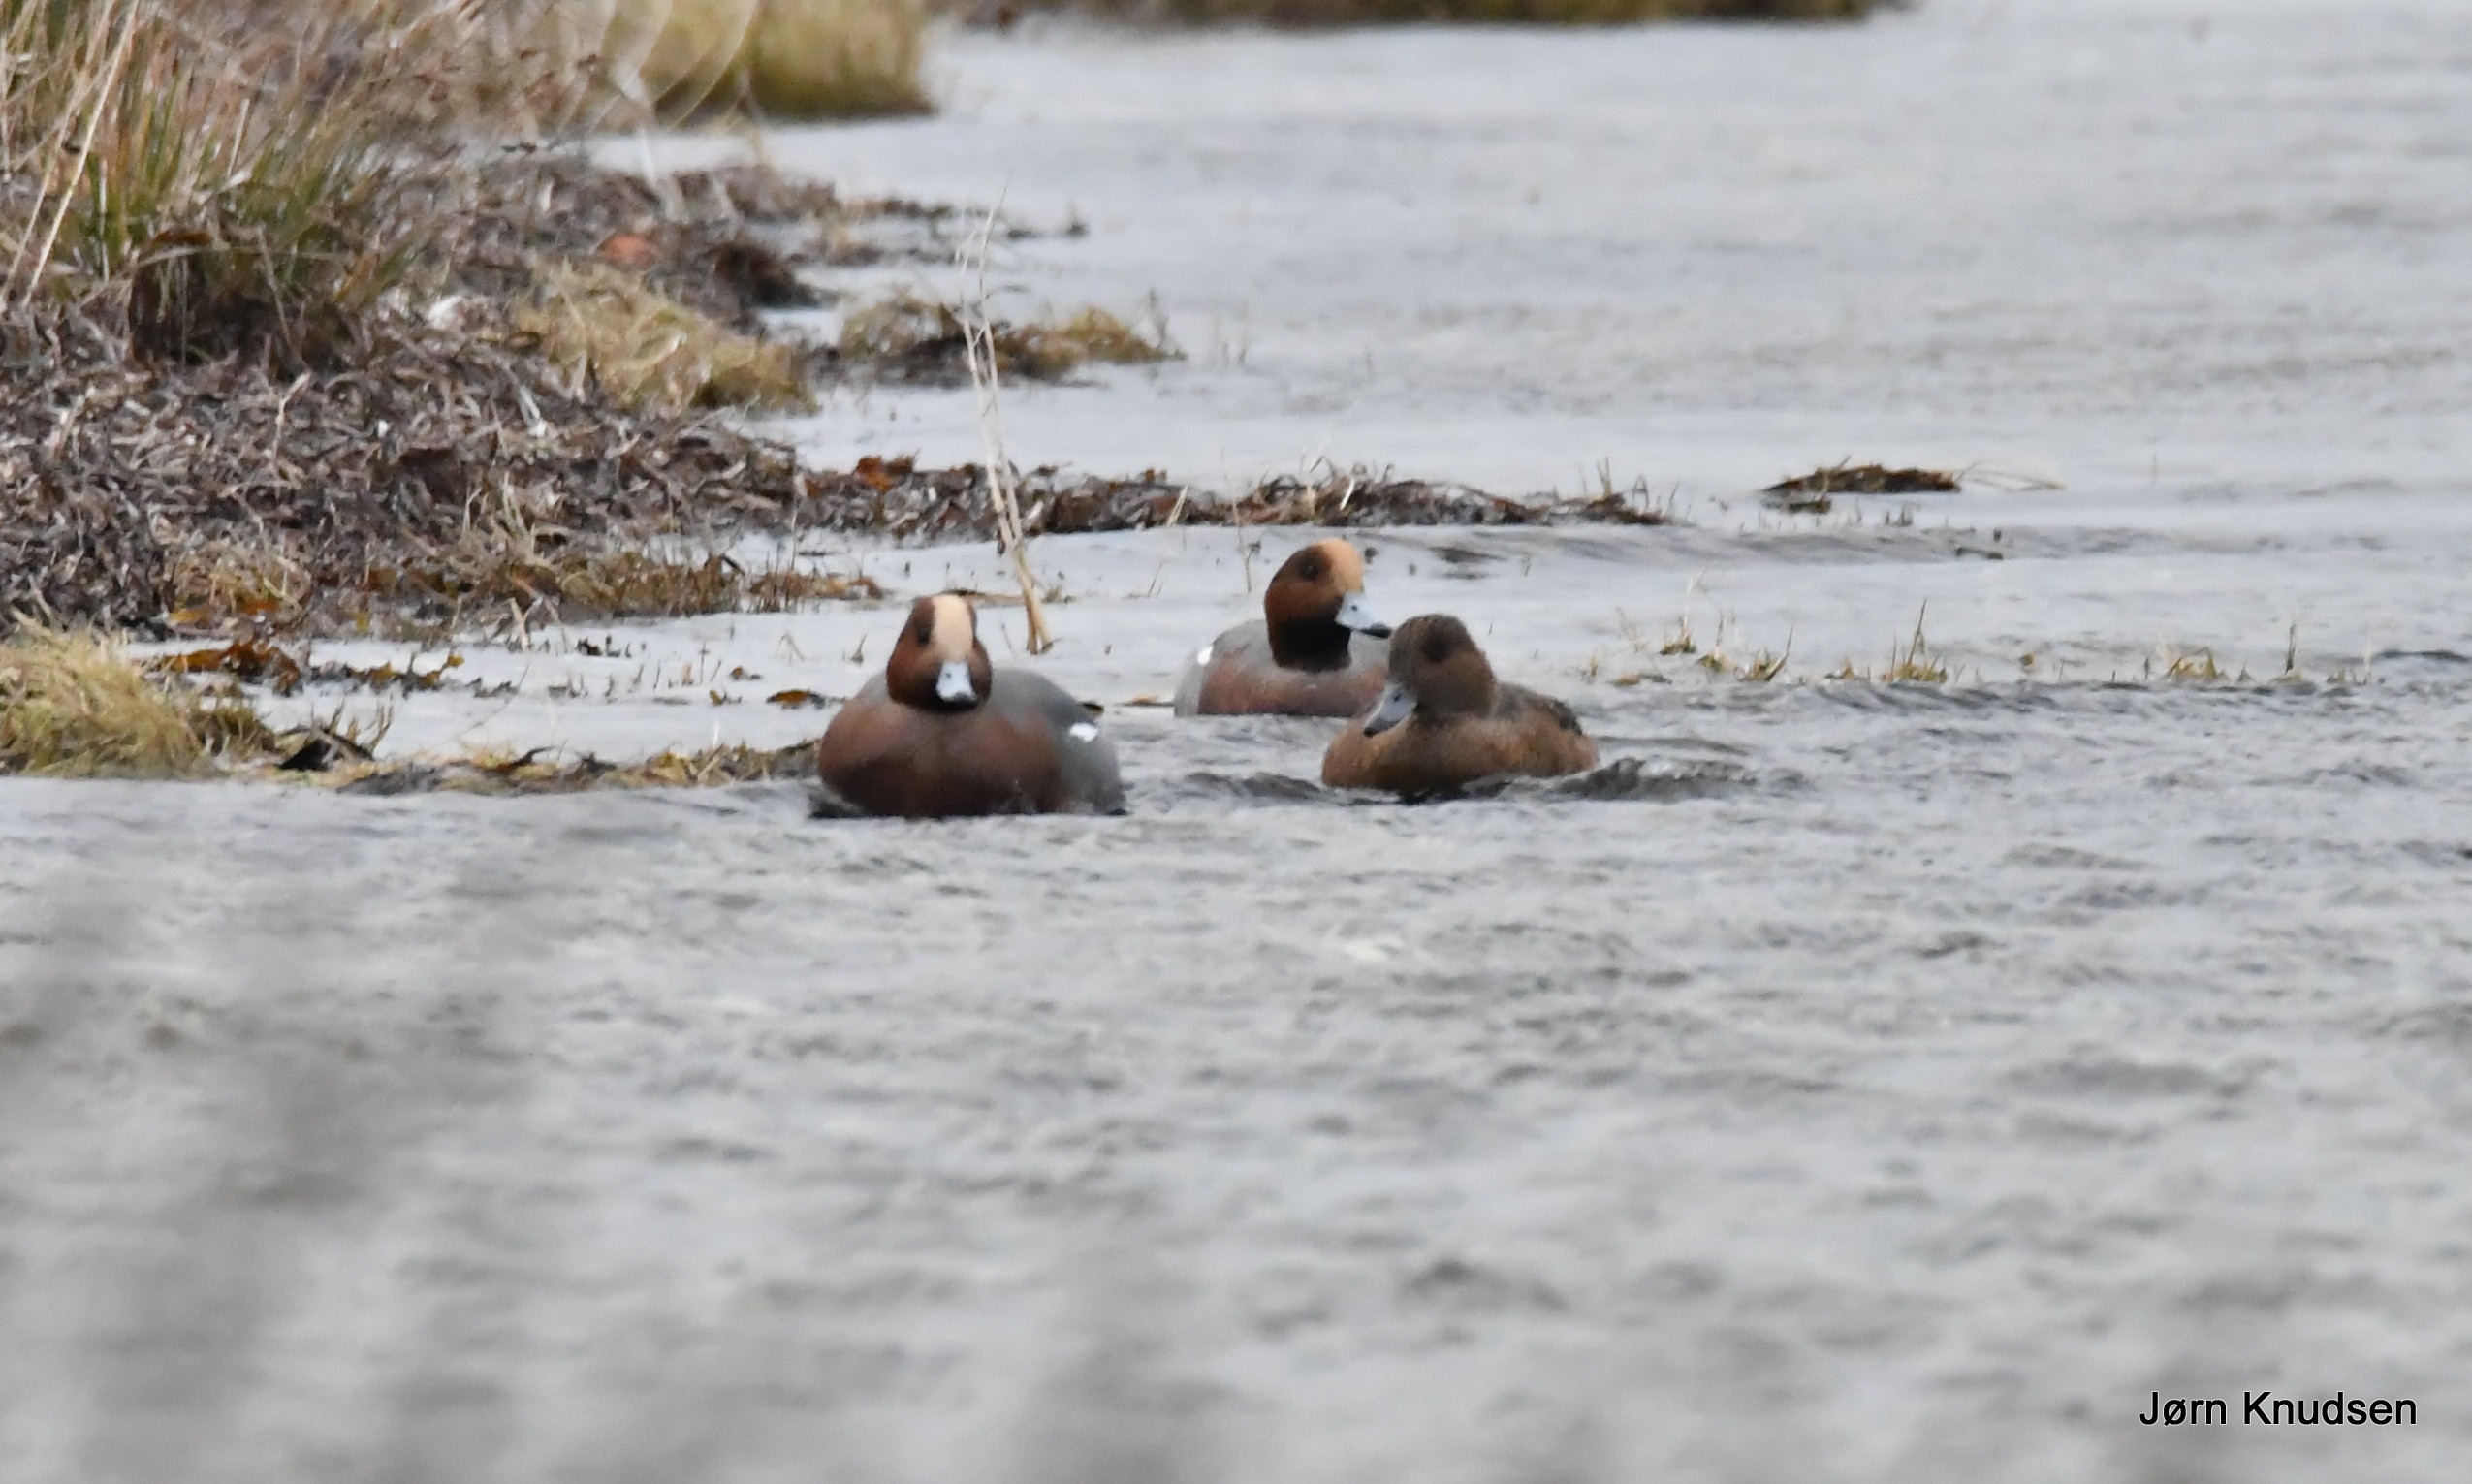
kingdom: Animalia
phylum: Chordata
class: Aves
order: Anseriformes
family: Anatidae
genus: Mareca
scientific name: Mareca penelope
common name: Pibeand
